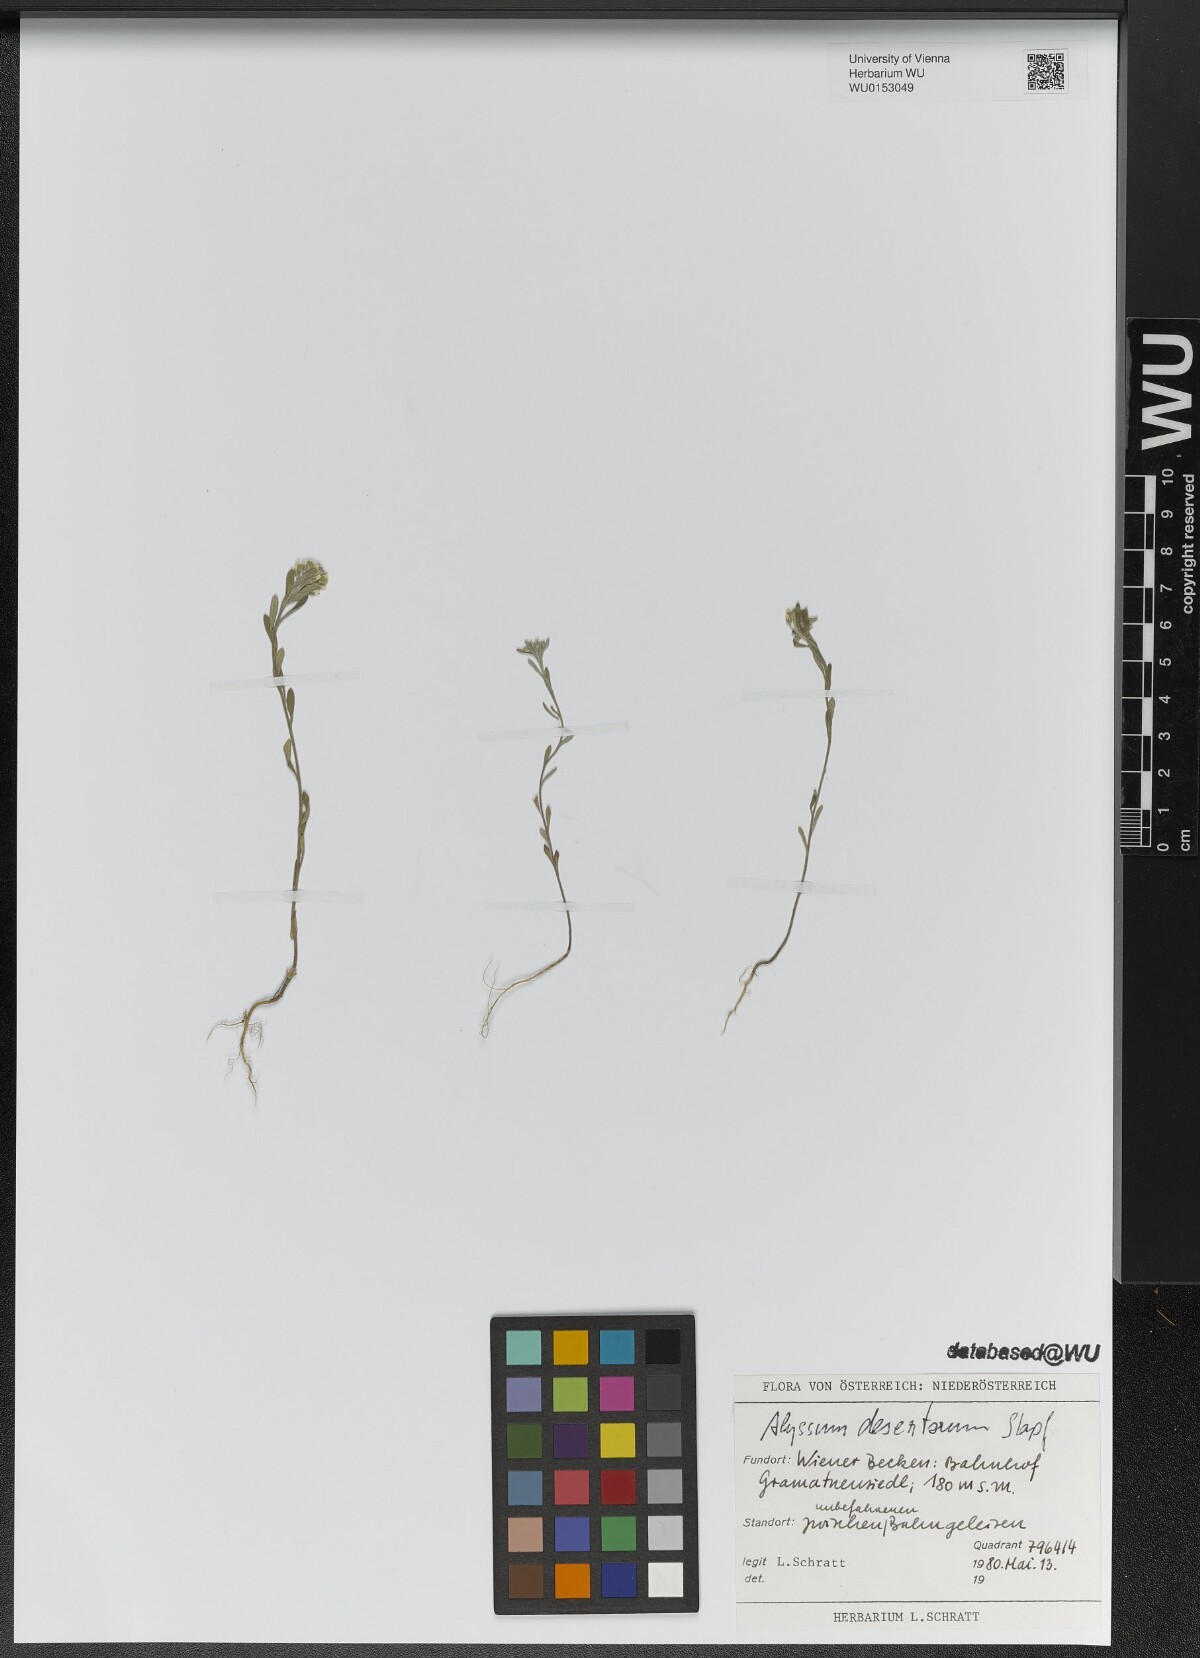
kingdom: Plantae
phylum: Tracheophyta
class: Magnoliopsida
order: Brassicales
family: Brassicaceae
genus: Alyssum
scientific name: Alyssum turkestanicum
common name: Desert alyssum
